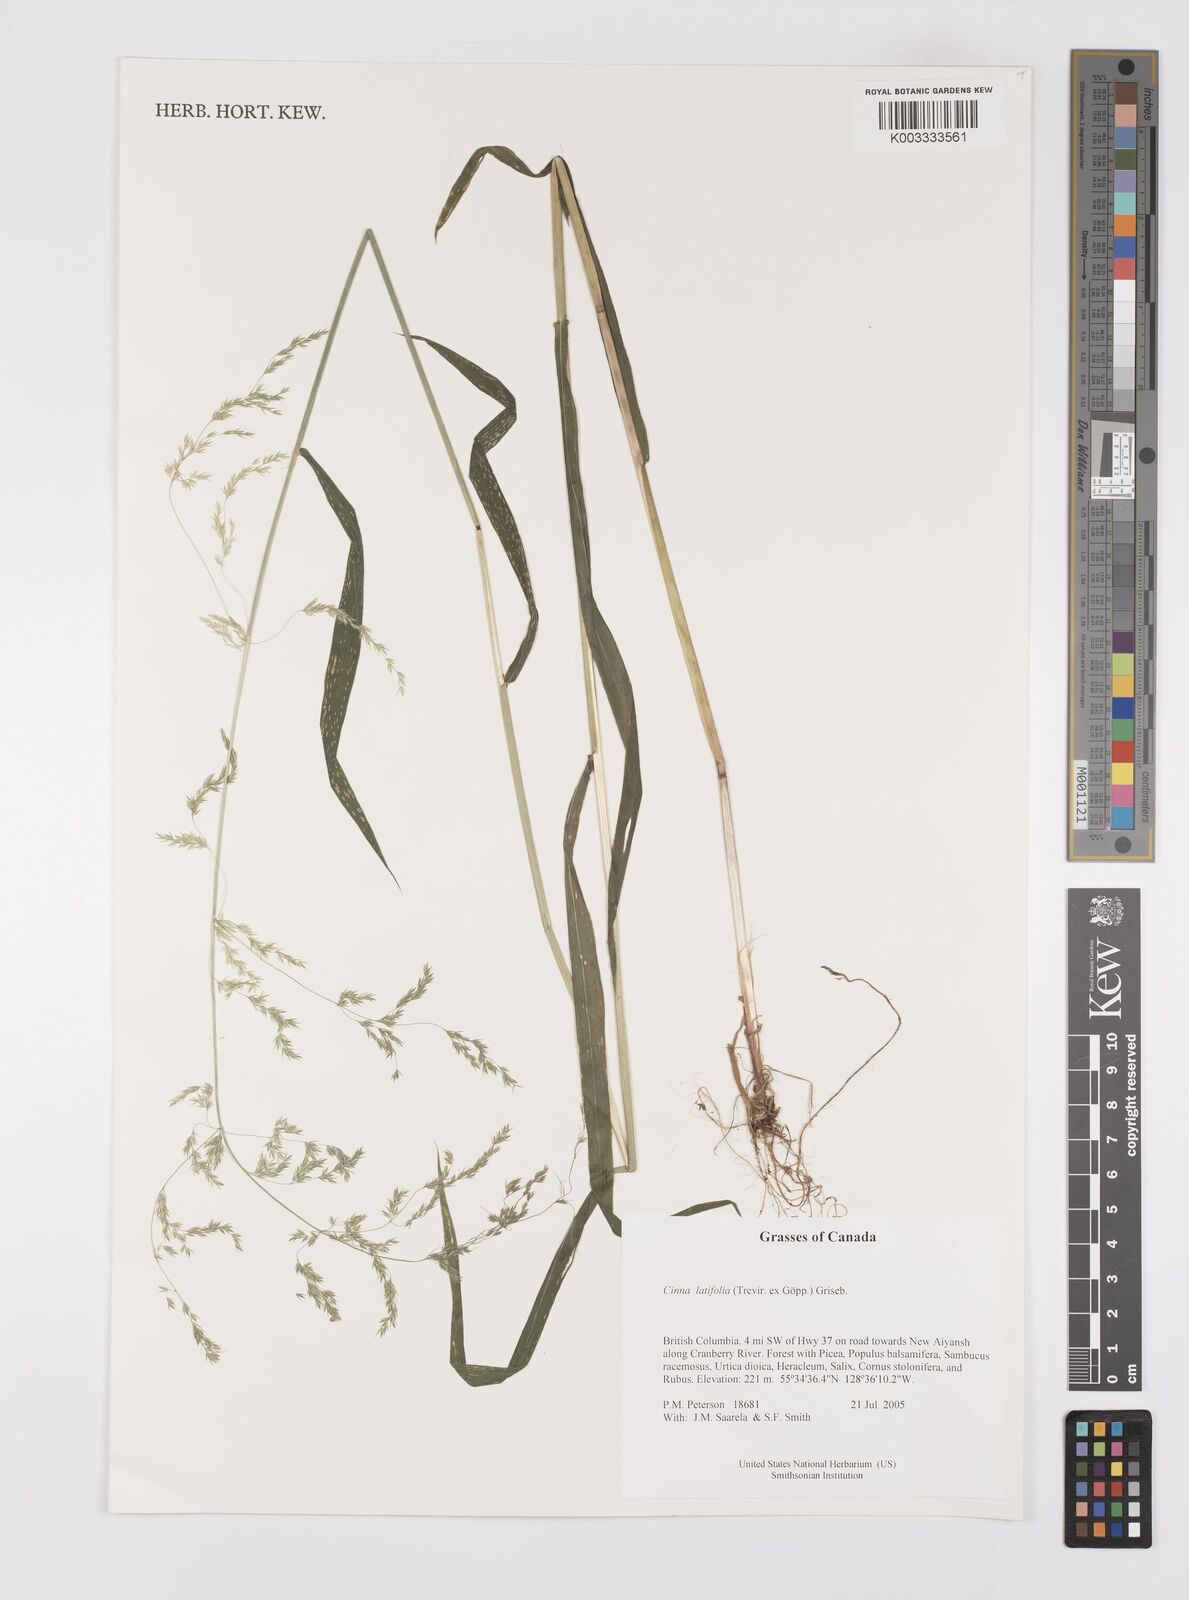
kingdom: Plantae
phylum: Tracheophyta
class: Liliopsida
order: Poales
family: Poaceae
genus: Cinna
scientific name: Cinna latifolia
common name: Drooping woodreed
